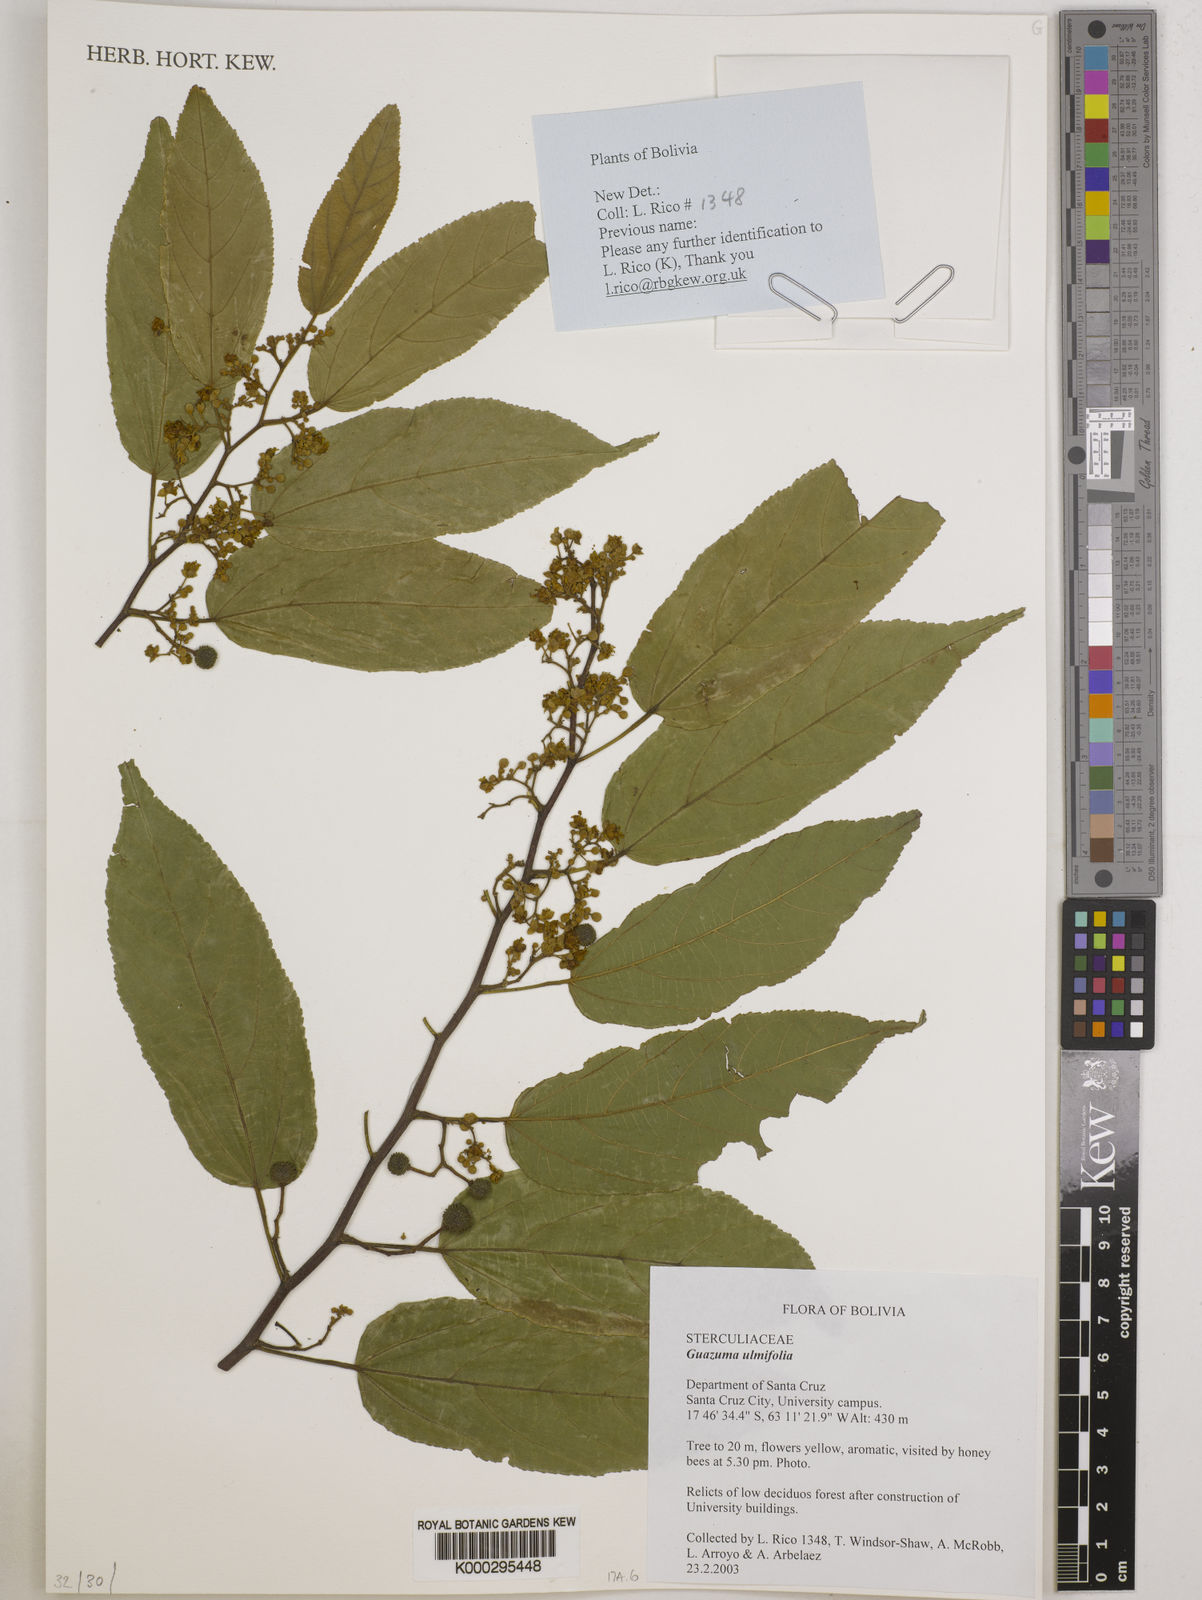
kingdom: Plantae
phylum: Tracheophyta
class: Magnoliopsida
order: Malvales
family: Malvaceae
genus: Guazuma
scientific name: Guazuma ulmifolia
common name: Bastard-cedar
